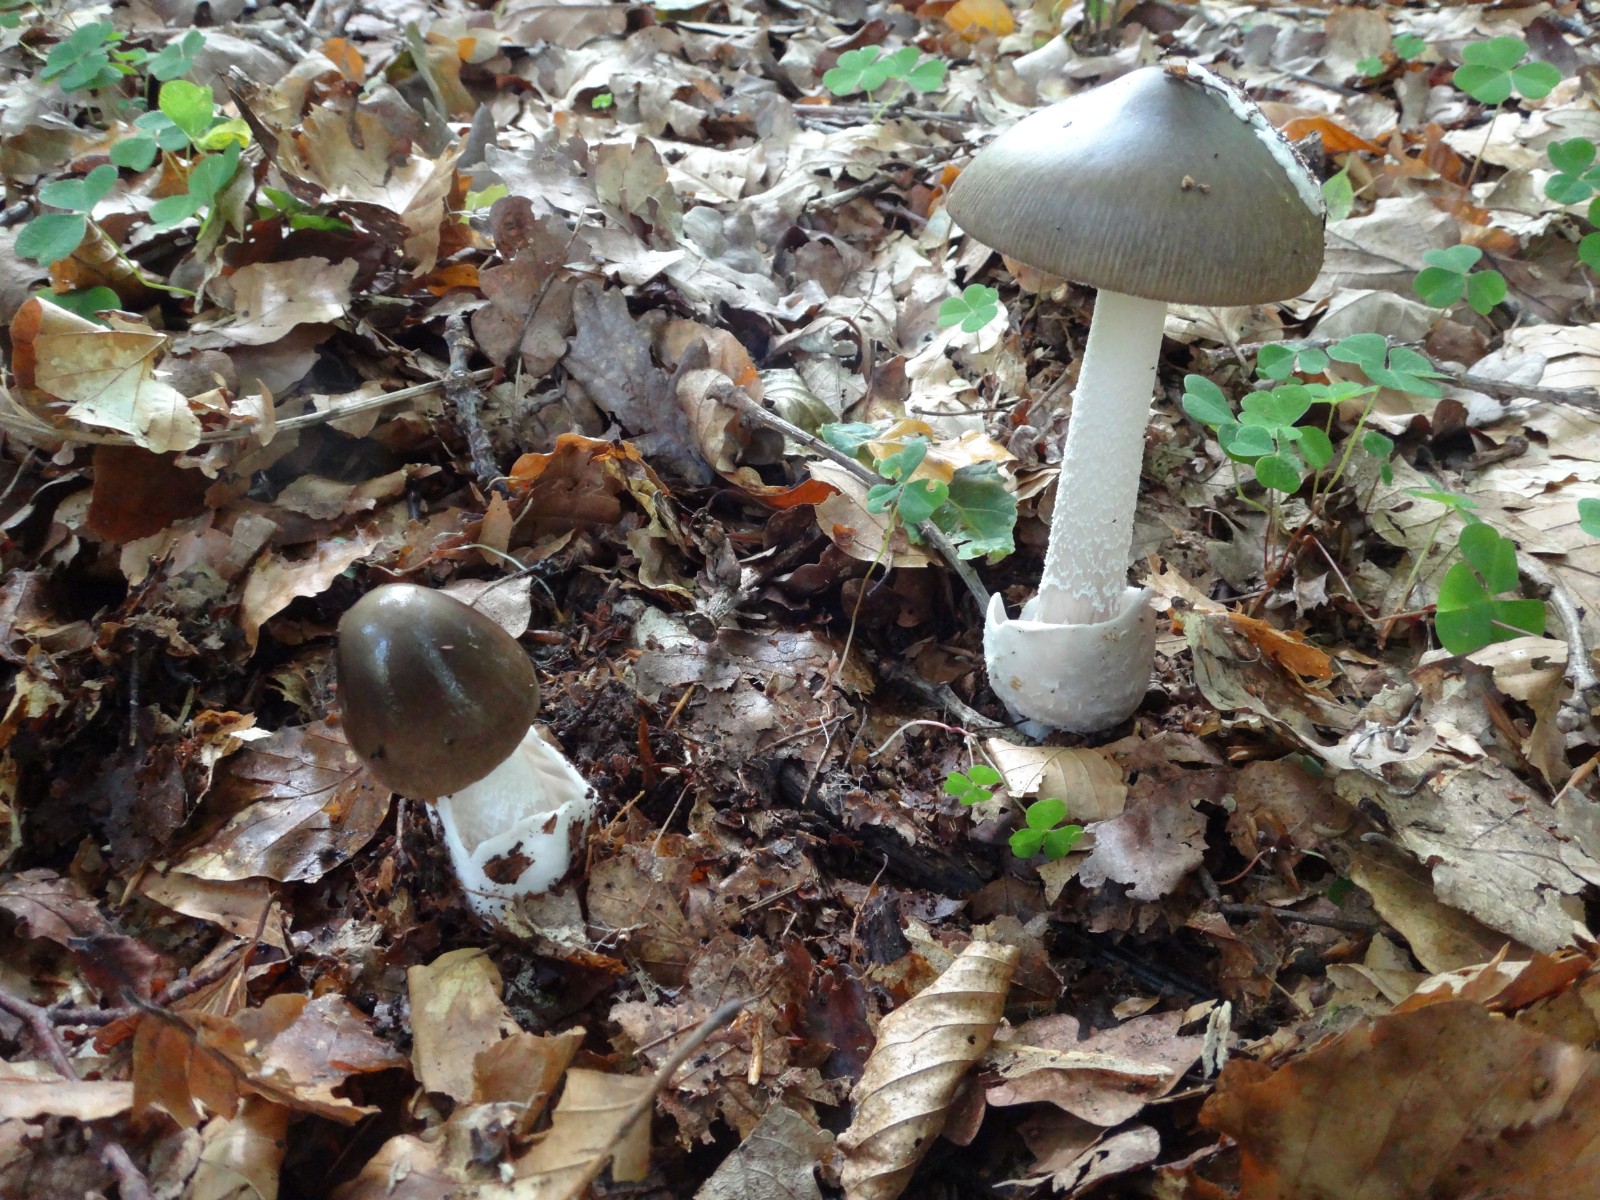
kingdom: Fungi
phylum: Basidiomycota
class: Agaricomycetes
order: Agaricales
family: Amanitaceae
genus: Amanita
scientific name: Amanita vaginata
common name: grå kam-fluesvamp
